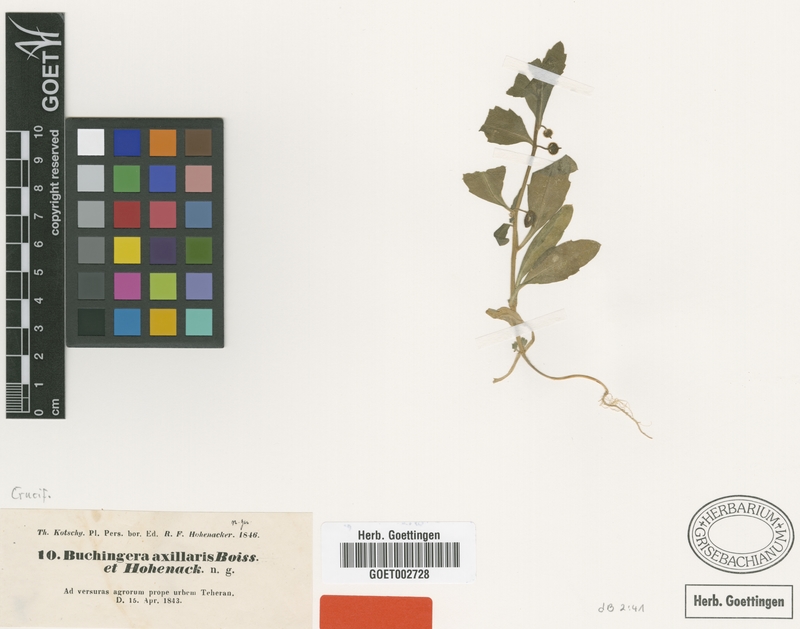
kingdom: Plantae
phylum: Tracheophyta
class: Magnoliopsida
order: Brassicales
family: Brassicaceae
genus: Asperuginoides
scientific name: Asperuginoides axillaris
